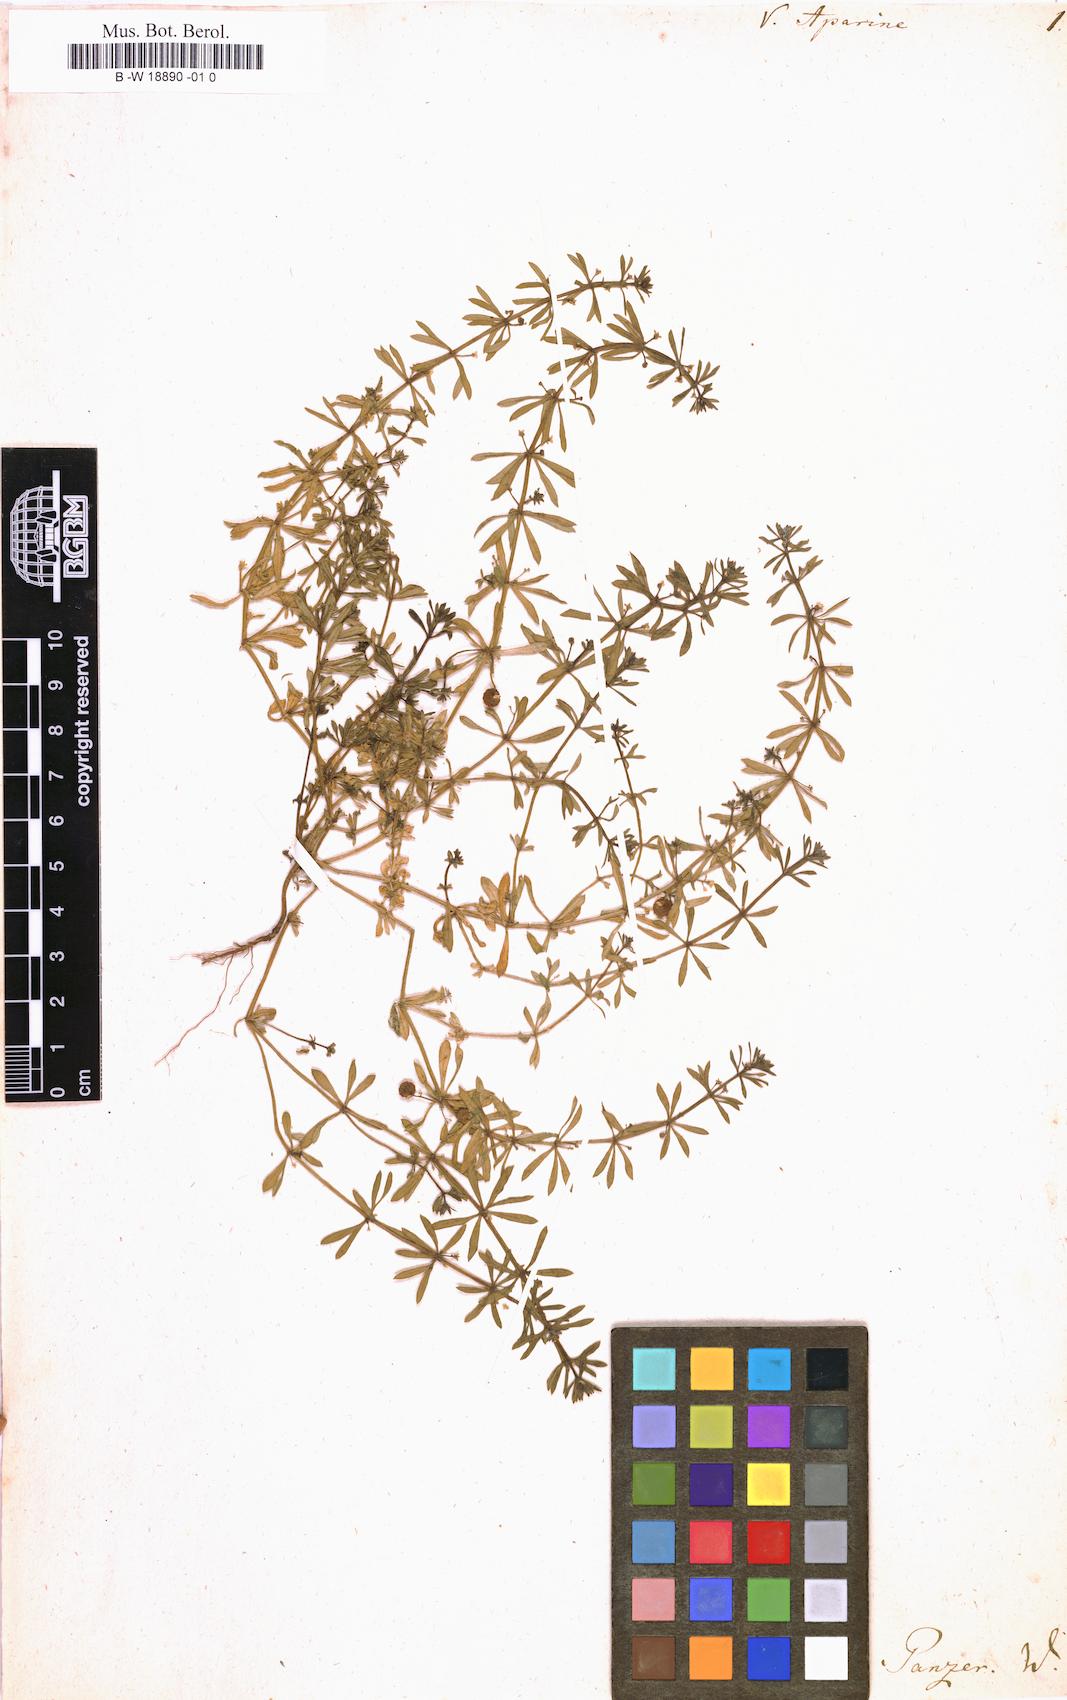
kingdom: Plantae
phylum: Tracheophyta
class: Magnoliopsida
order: Gentianales
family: Rubiaceae
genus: Valantia
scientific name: Valantia aparine
